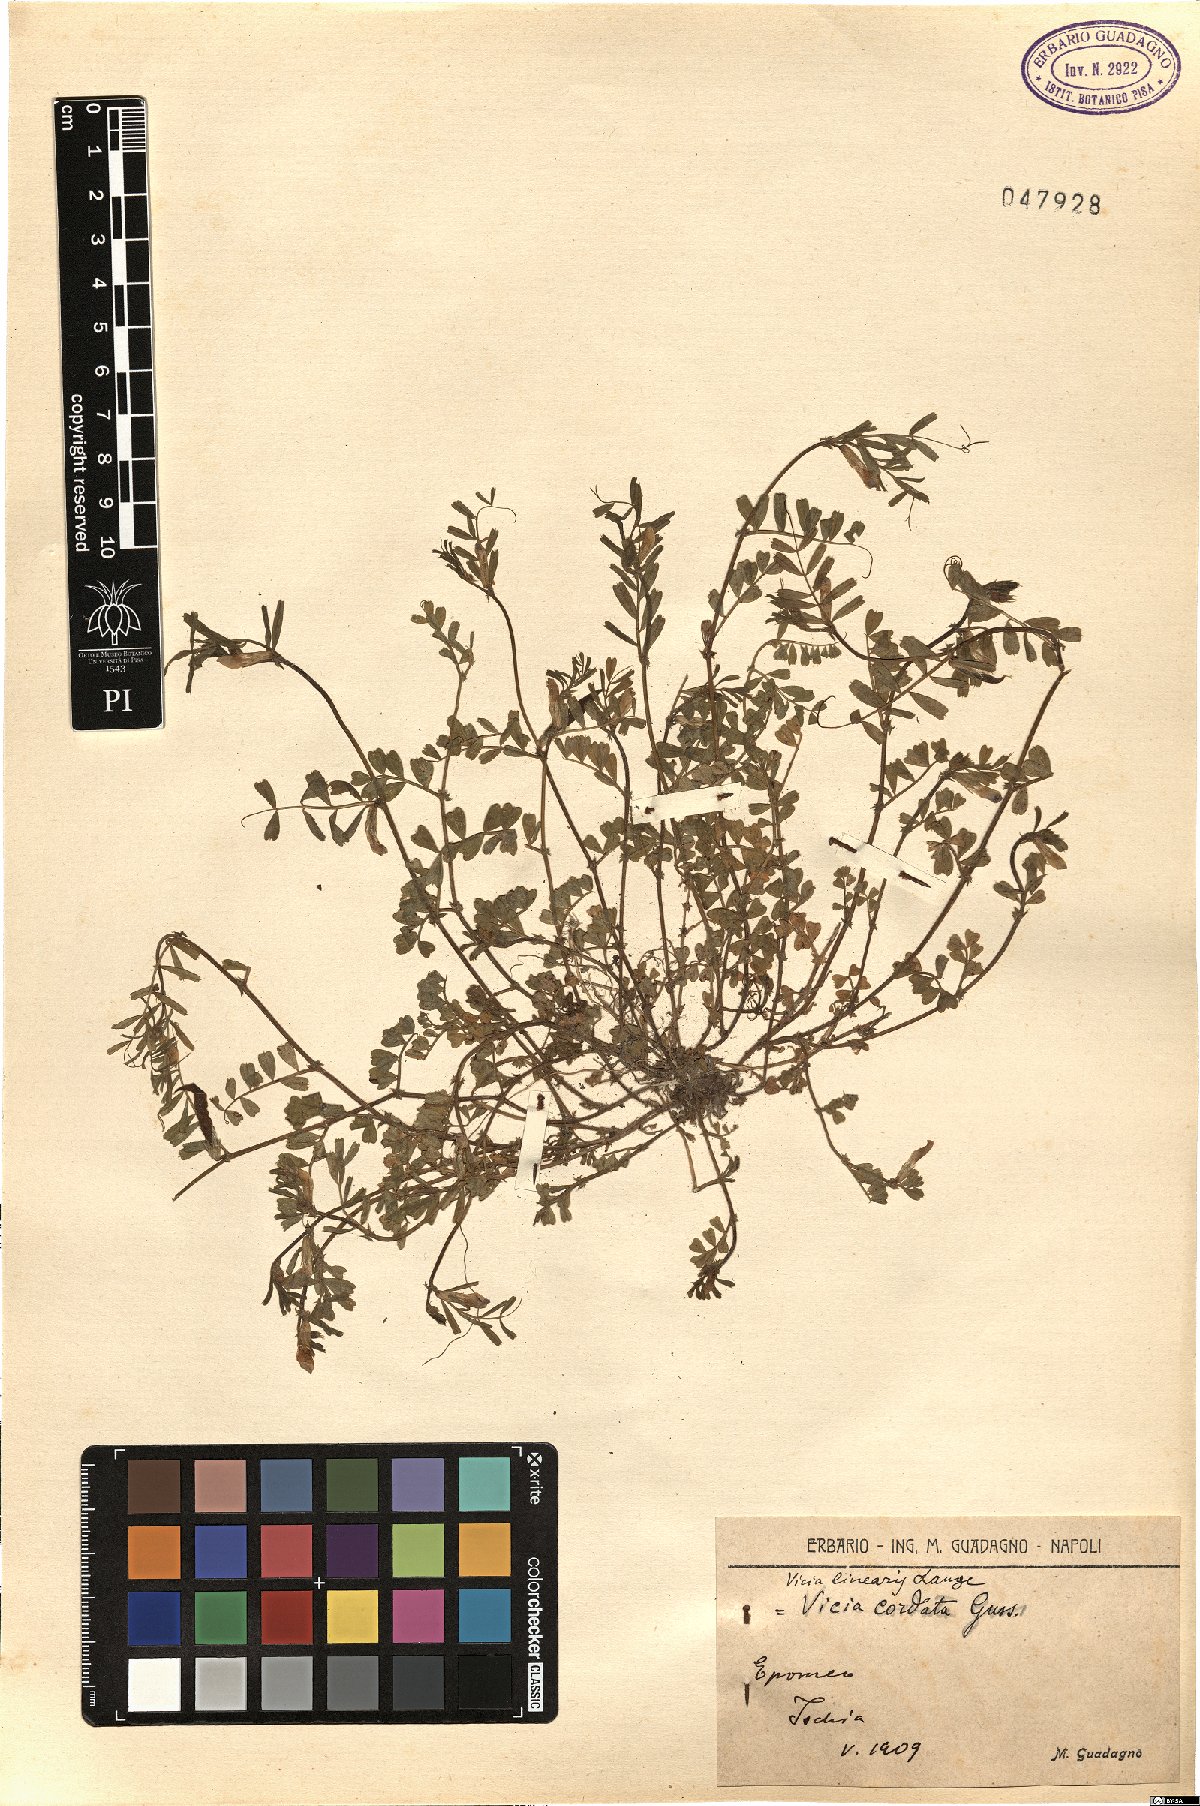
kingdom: Plantae
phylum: Tracheophyta
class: Magnoliopsida
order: Fabales
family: Fabaceae
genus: Vicia
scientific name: Vicia sativa
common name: Garden vetch
